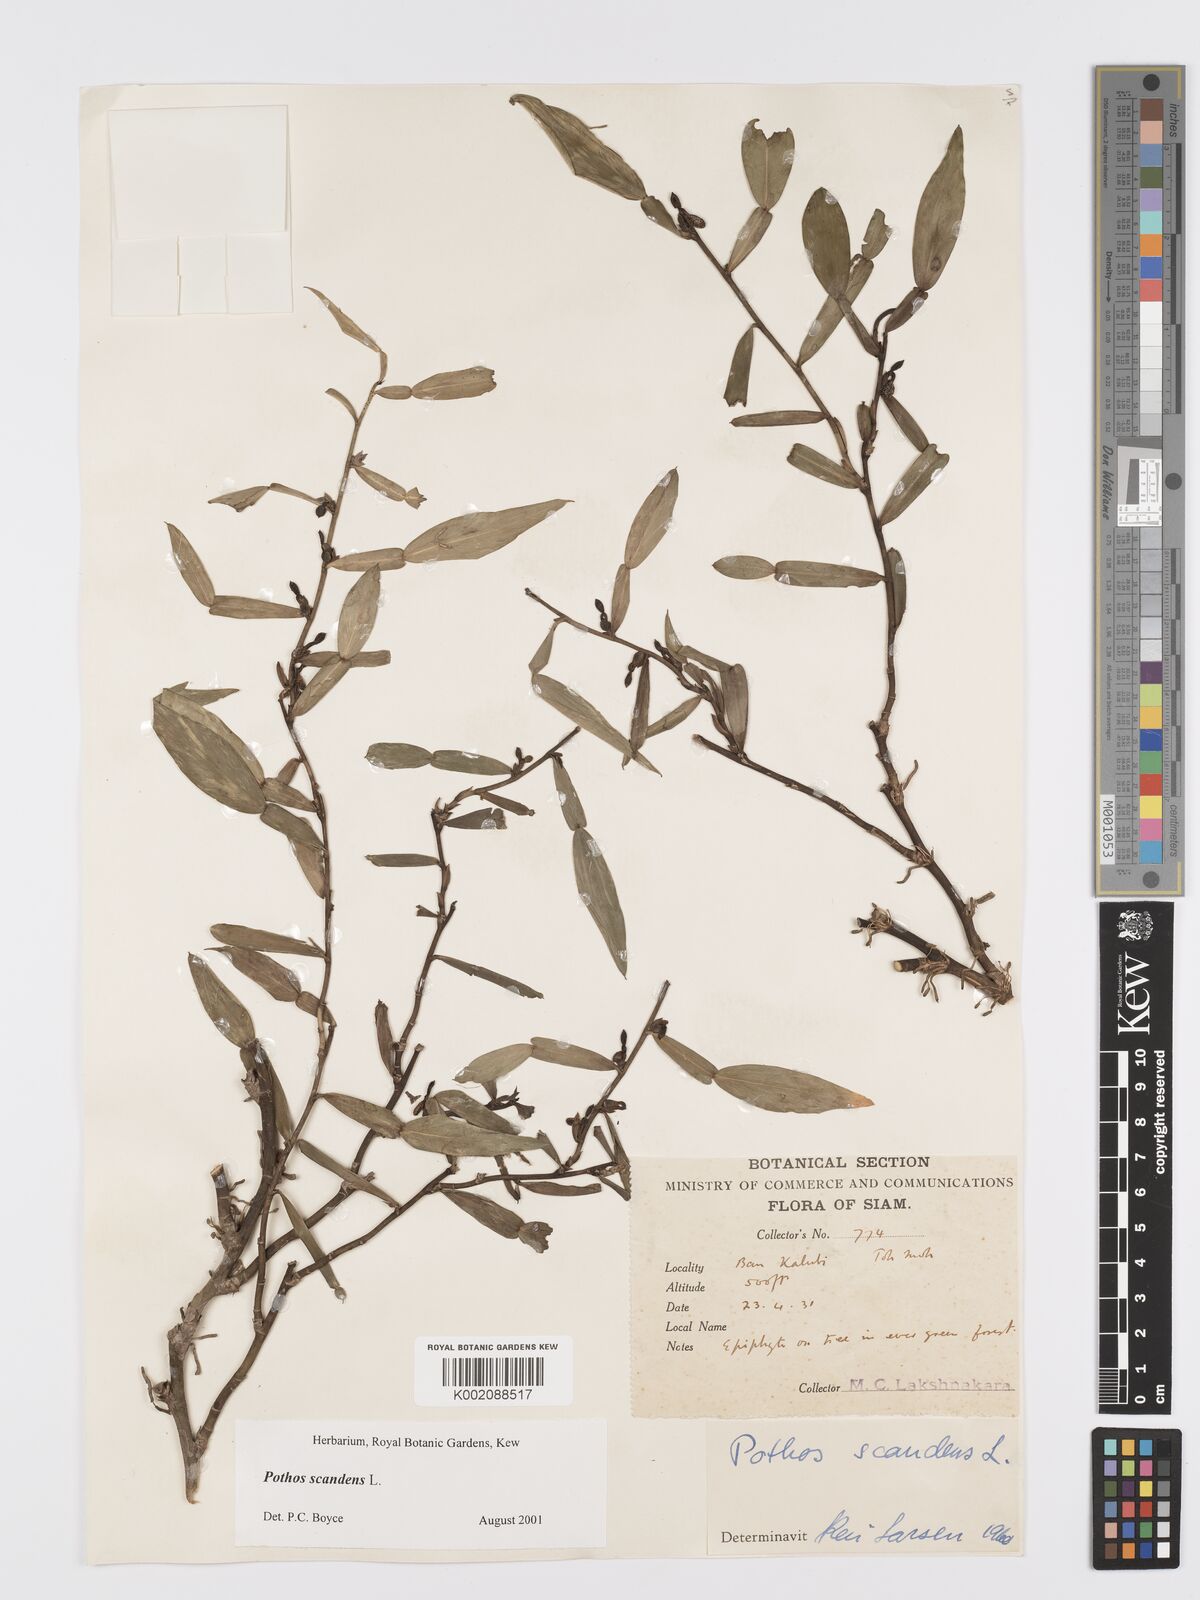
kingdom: Plantae
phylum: Tracheophyta
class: Liliopsida
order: Alismatales
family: Araceae
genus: Pothos
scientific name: Pothos scandens
